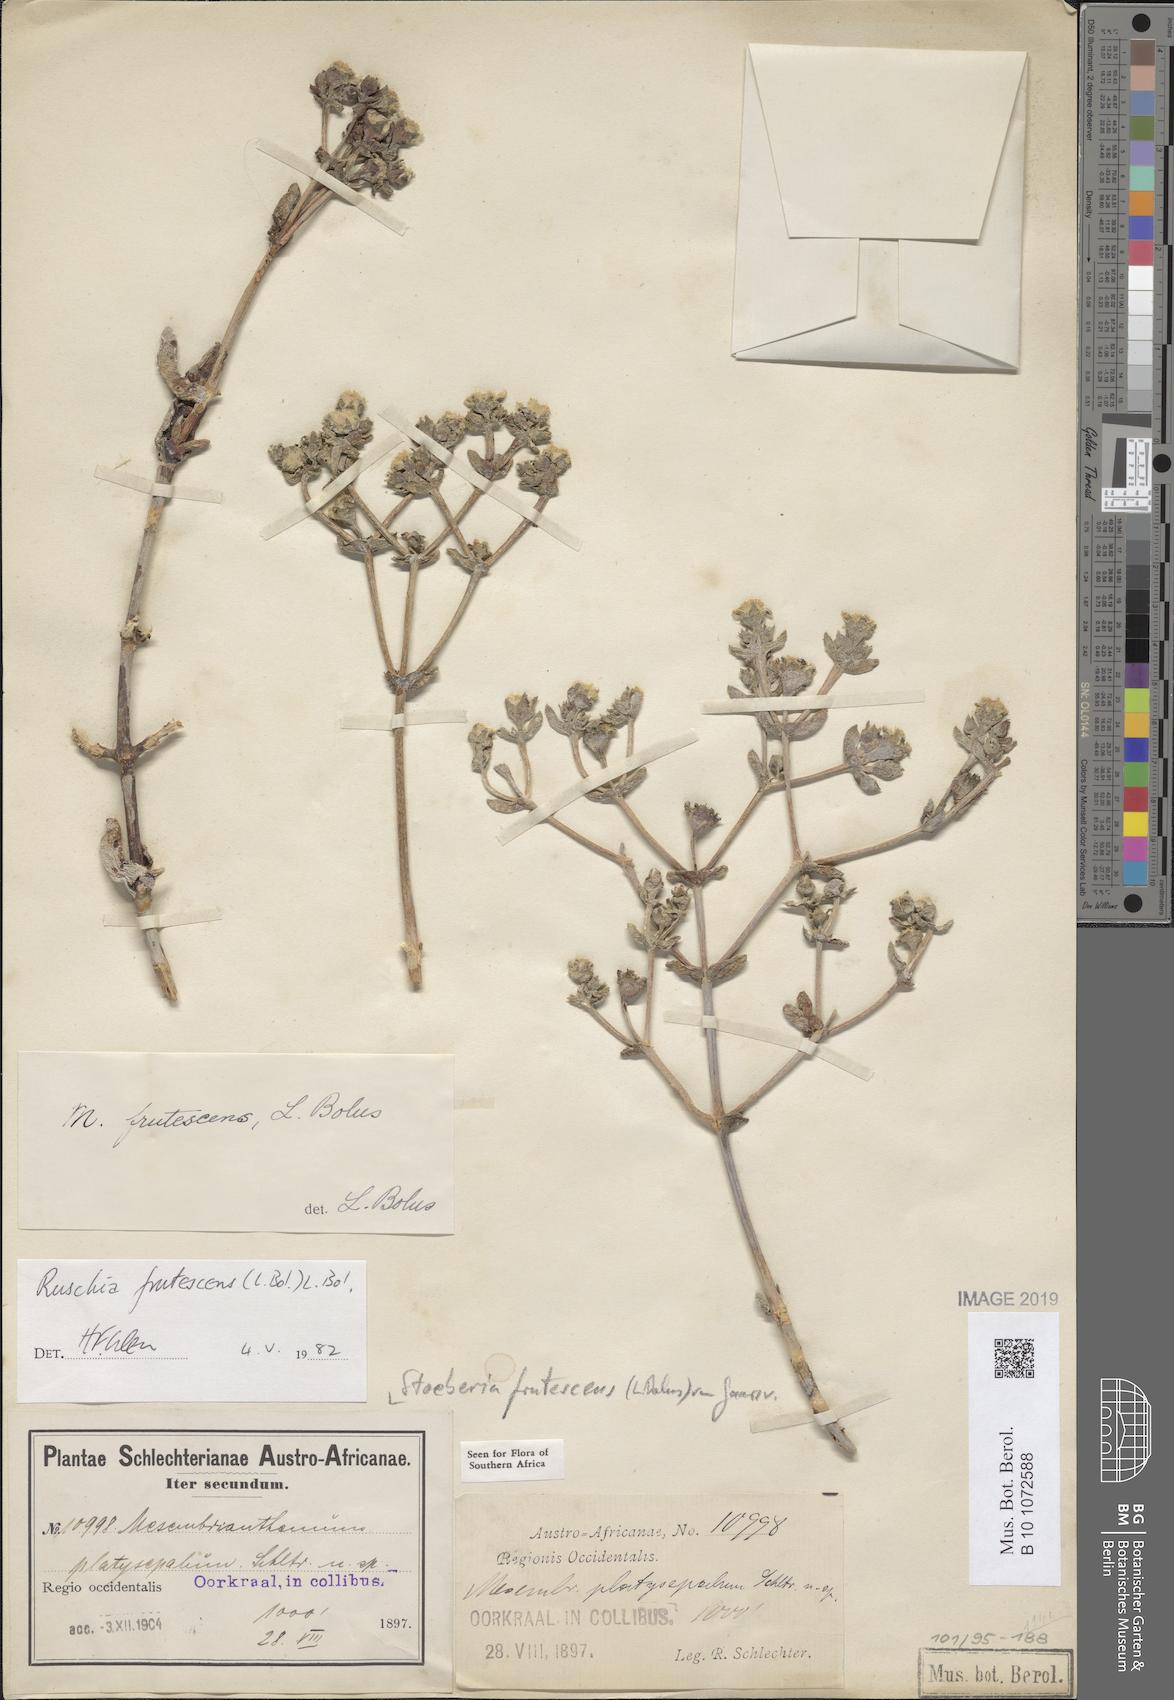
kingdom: Plantae
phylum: Tracheophyta
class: Magnoliopsida
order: Caryophyllales
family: Aizoaceae
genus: Stoeberia
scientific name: Stoeberia frutescens
